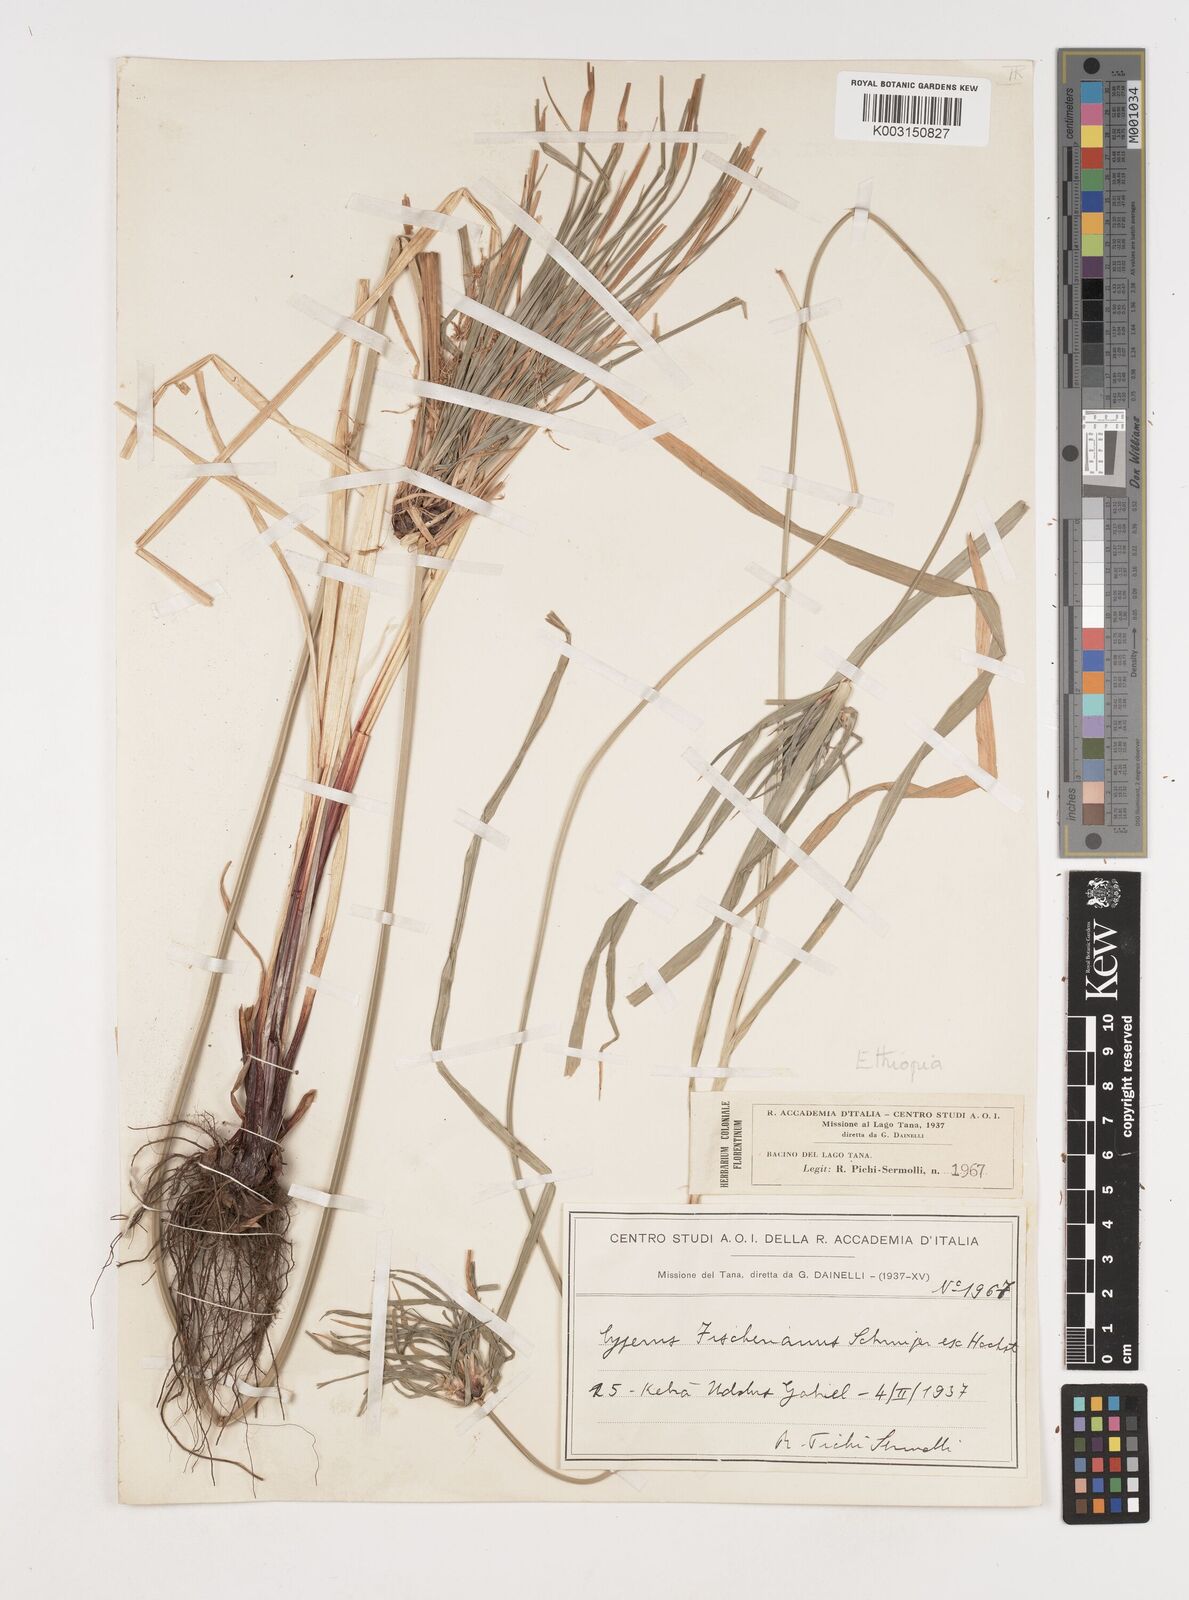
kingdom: Plantae
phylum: Tracheophyta
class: Liliopsida
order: Poales
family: Cyperaceae
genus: Cyperus
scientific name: Cyperus fischerianus
